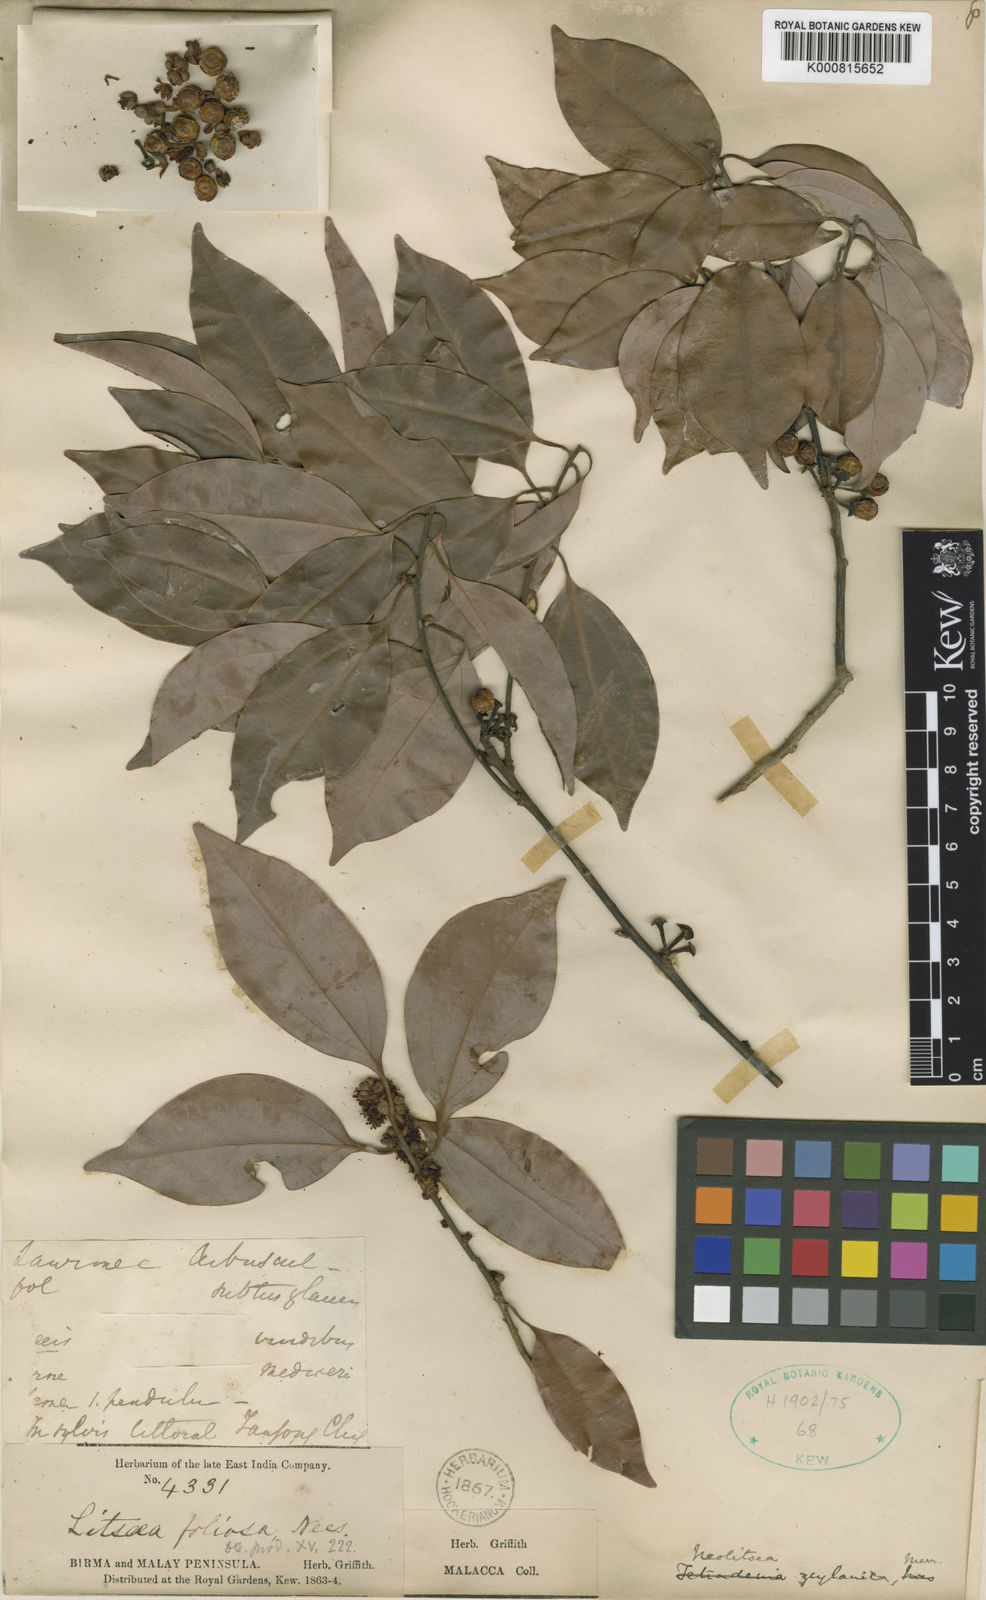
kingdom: Plantae
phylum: Tracheophyta
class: Magnoliopsida
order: Laurales
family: Lauraceae
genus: Neolitsea
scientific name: Neolitsea foliosa
